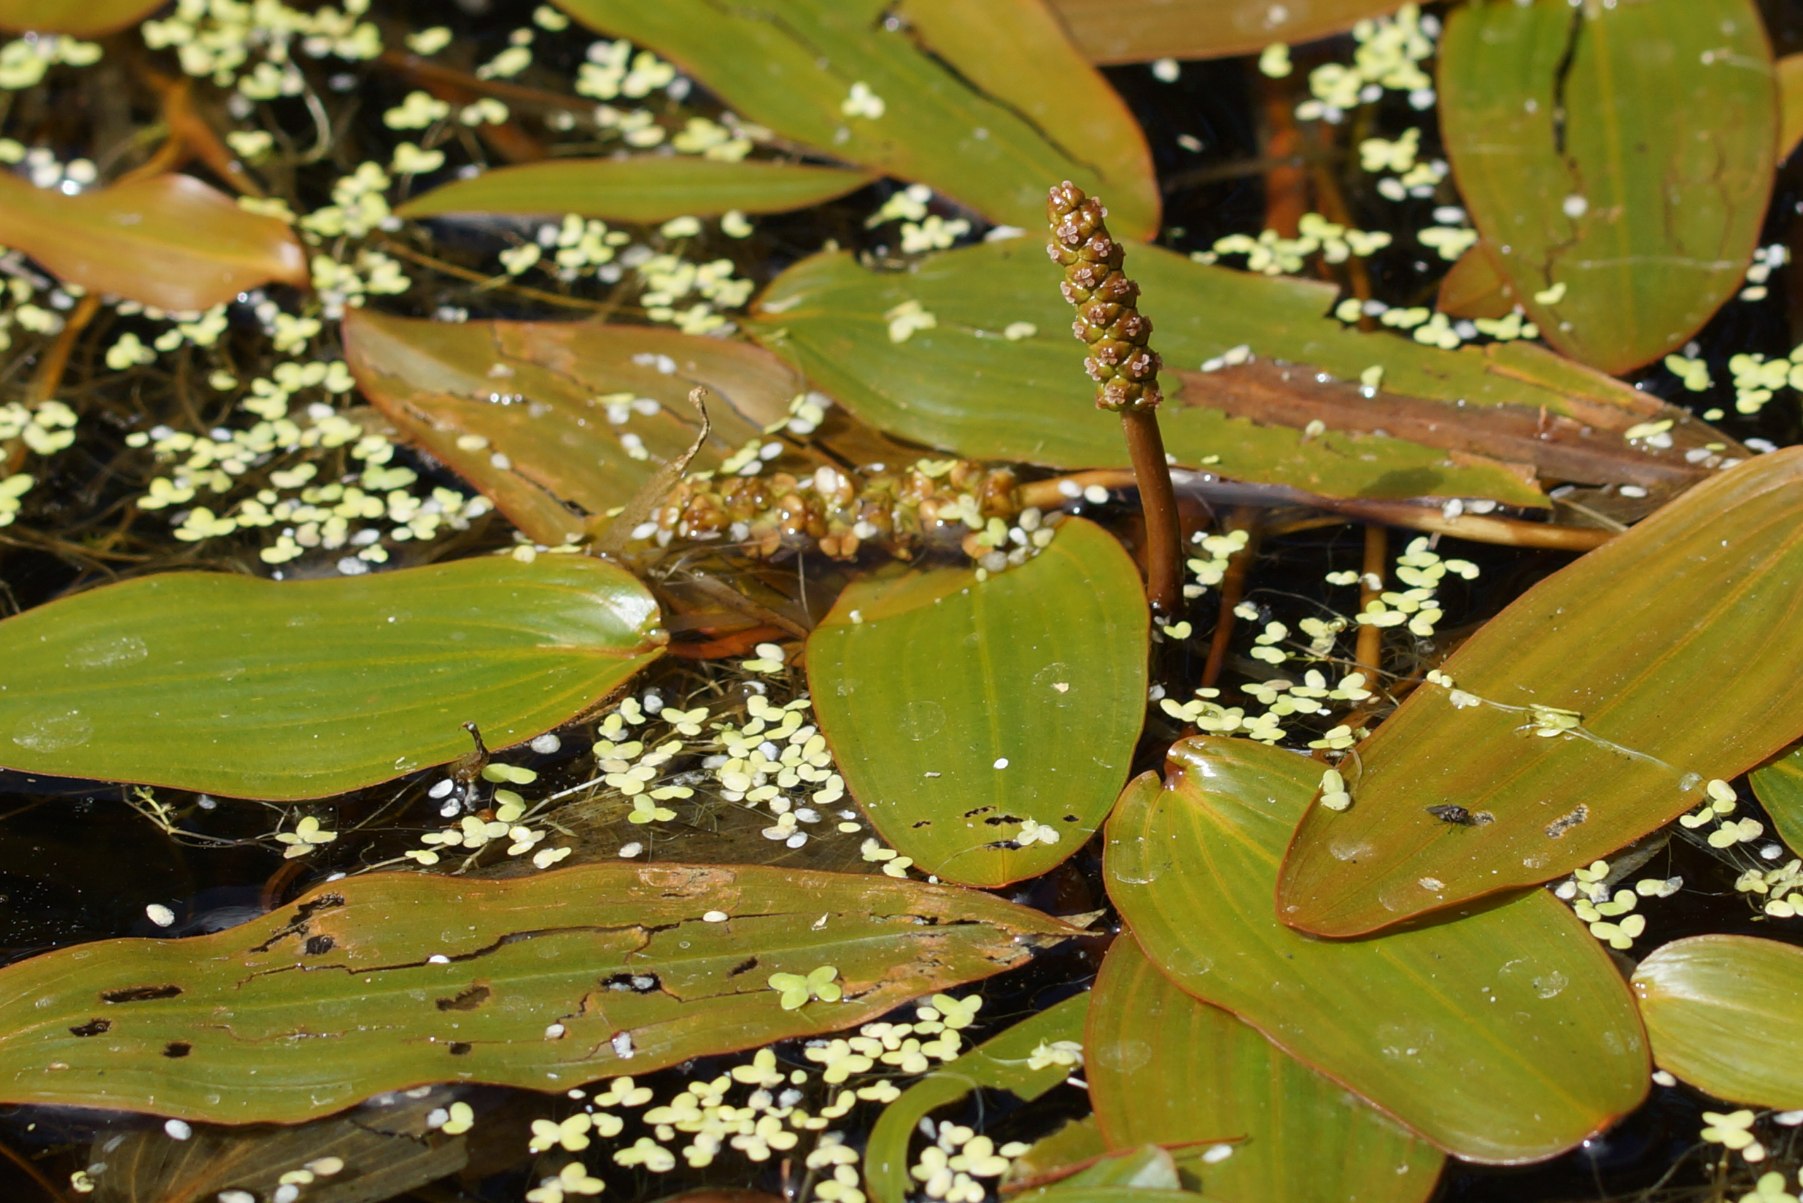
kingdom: Plantae
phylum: Tracheophyta
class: Liliopsida
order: Alismatales
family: Potamogetonaceae
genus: Potamogeton
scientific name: Potamogeton natans
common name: Svømmende vandaks
